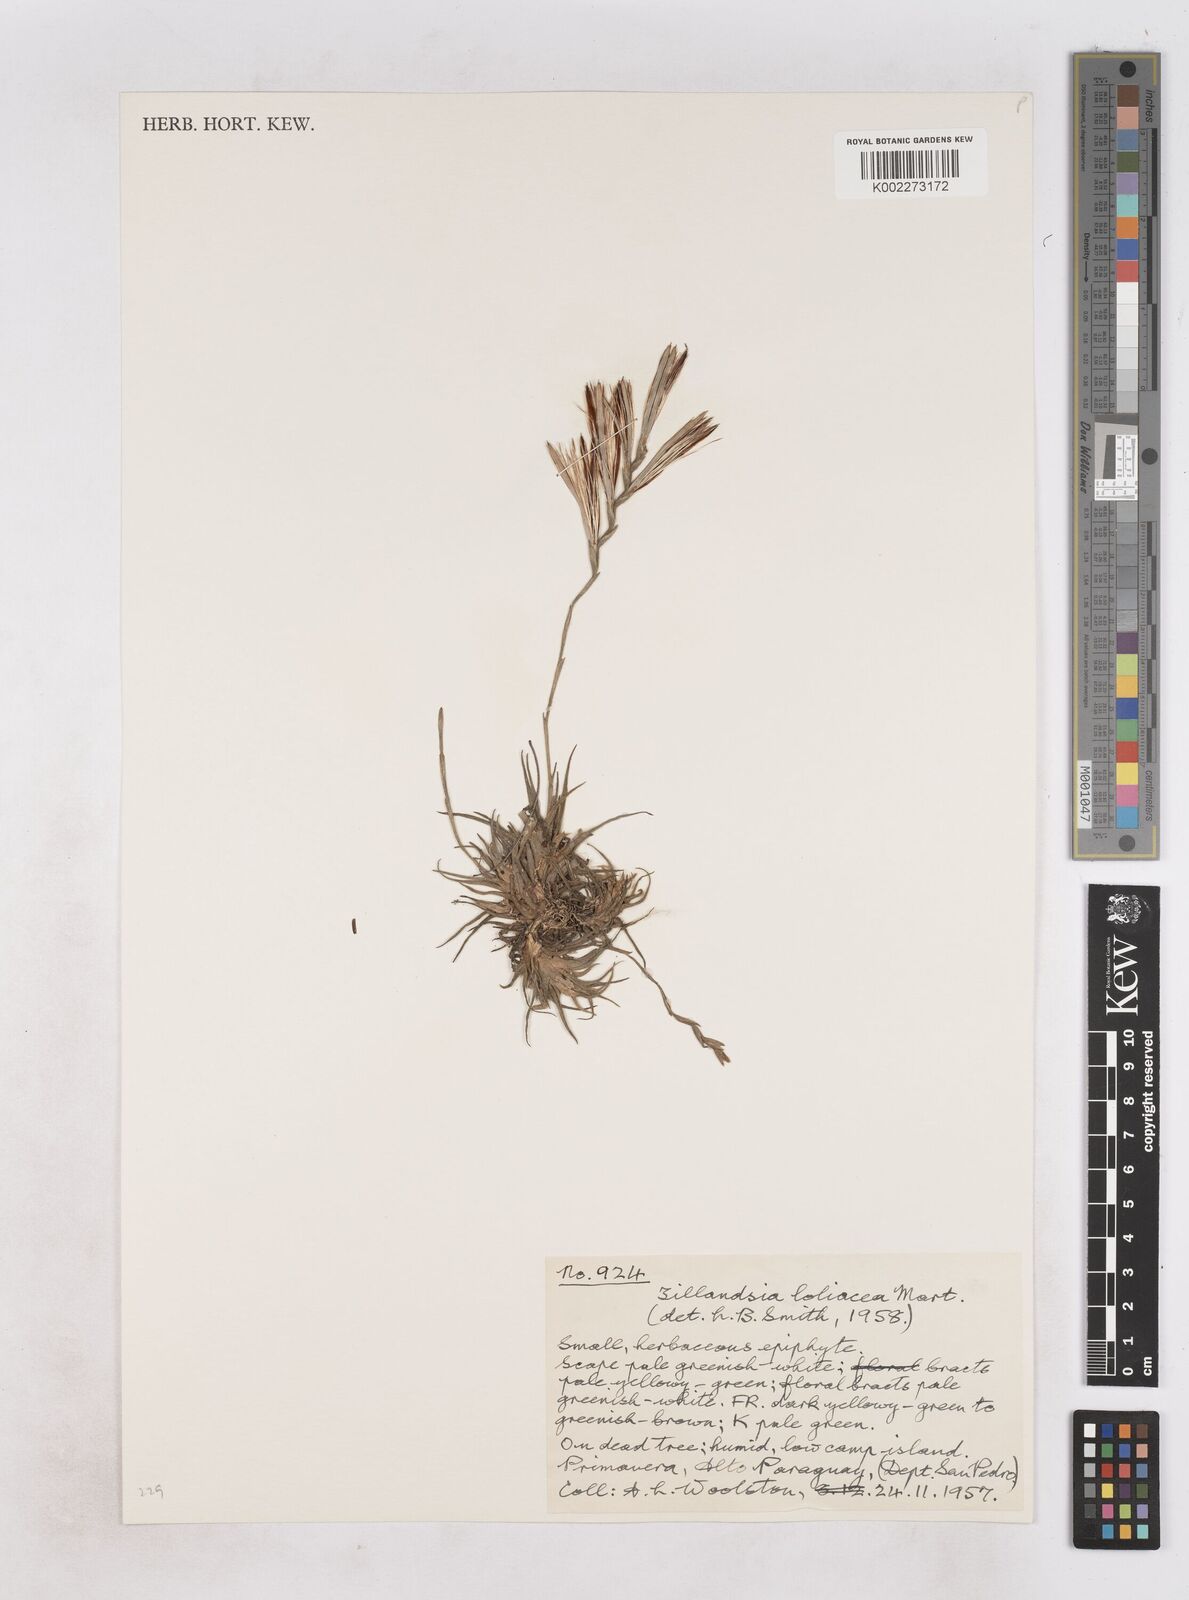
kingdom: Plantae
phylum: Tracheophyta
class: Liliopsida
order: Poales
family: Bromeliaceae
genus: Tillandsia
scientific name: Tillandsia loliacea
